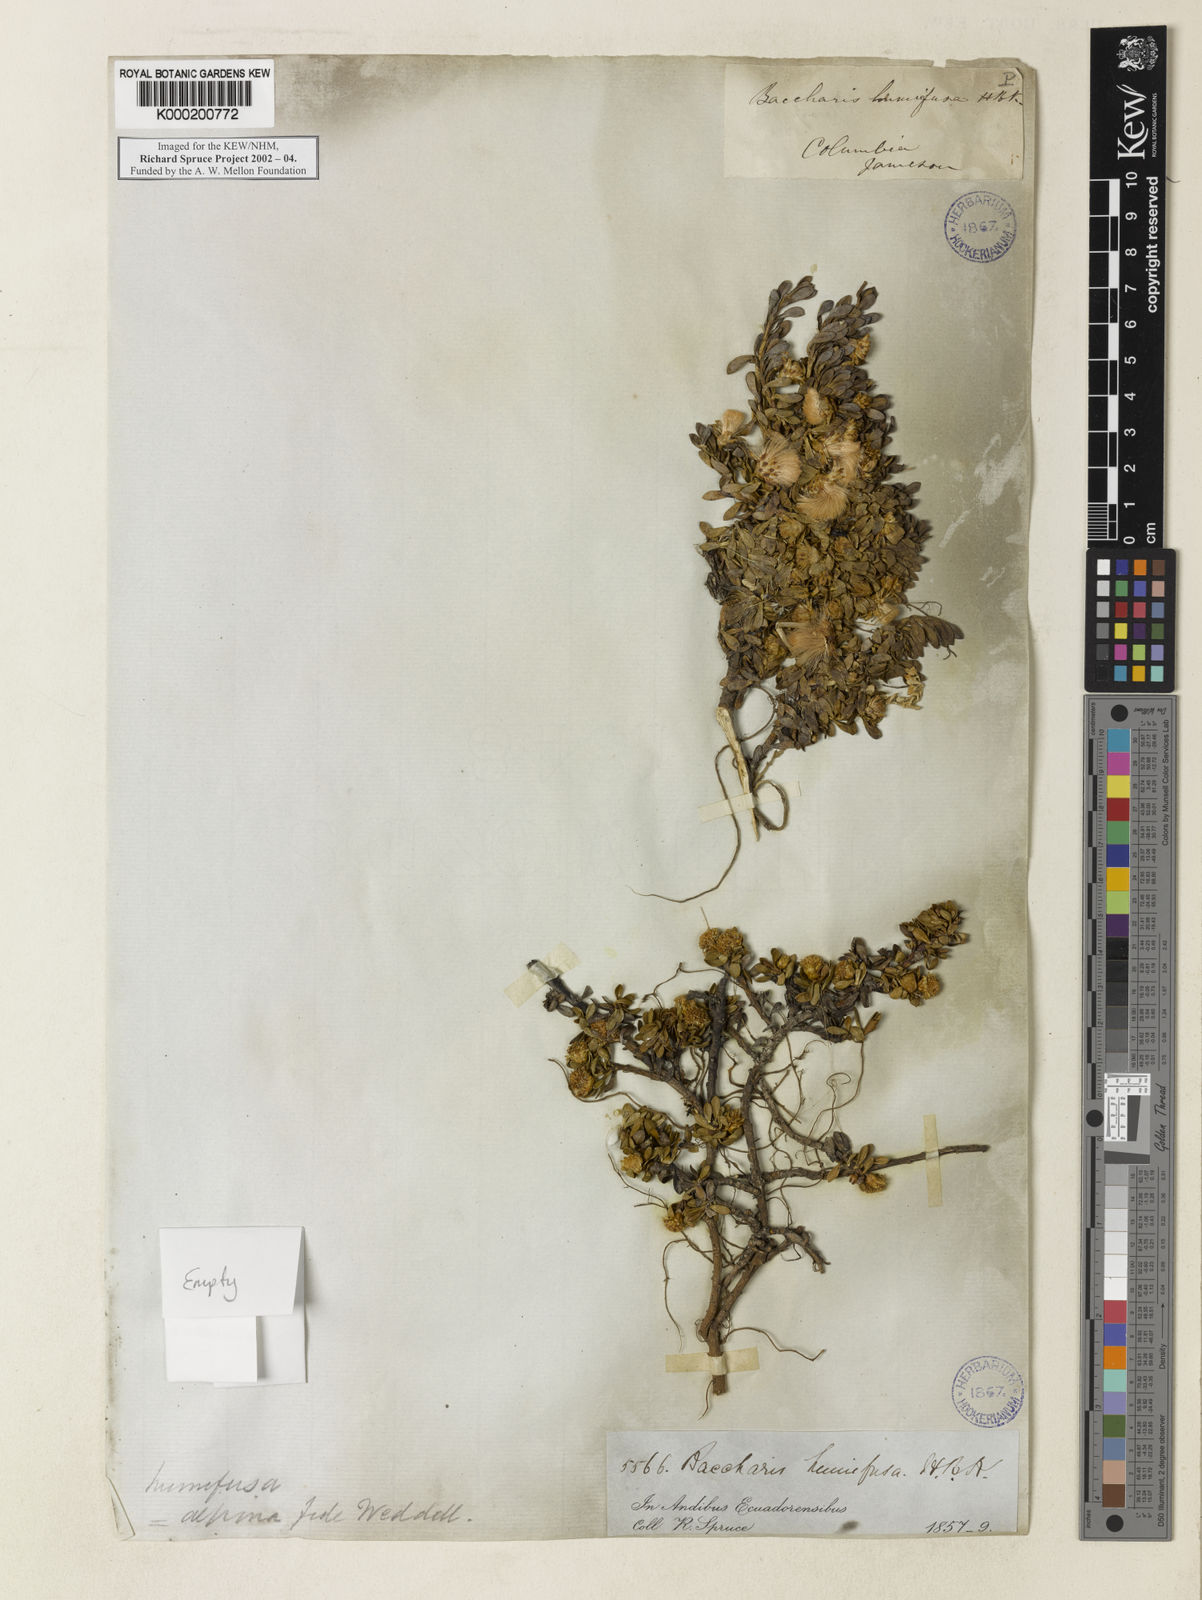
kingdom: Plantae
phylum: Tracheophyta
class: Magnoliopsida
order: Asterales
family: Asteraceae
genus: Baccharis
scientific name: Baccharis alpina
